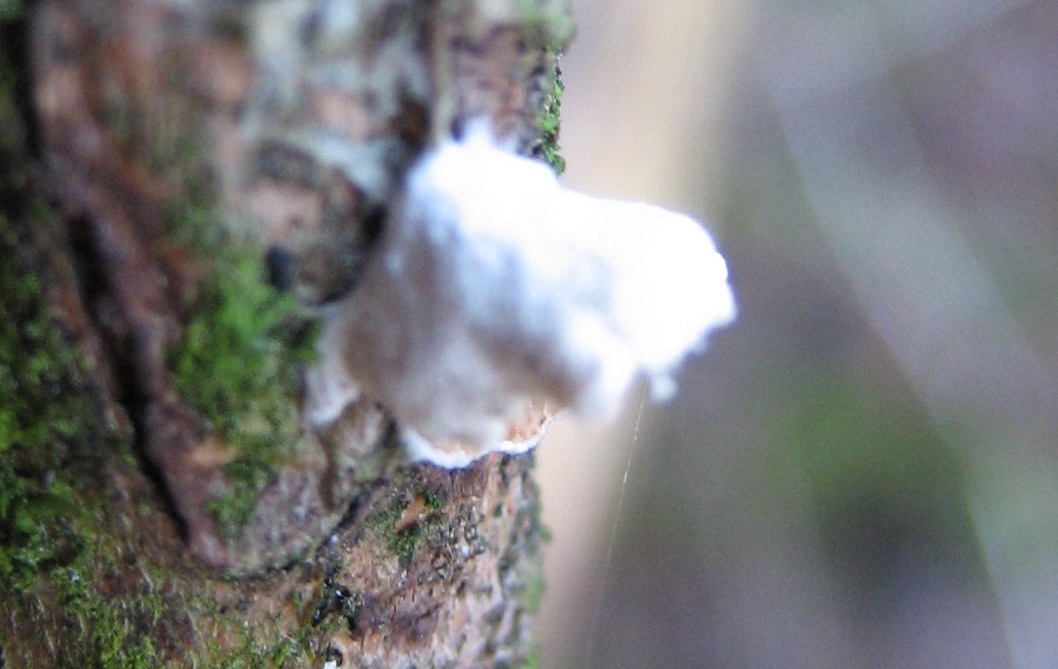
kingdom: Fungi
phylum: Basidiomycota
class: Agaricomycetes
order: Agaricales
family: Crepidotaceae
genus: Crepidotus
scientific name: Crepidotus
